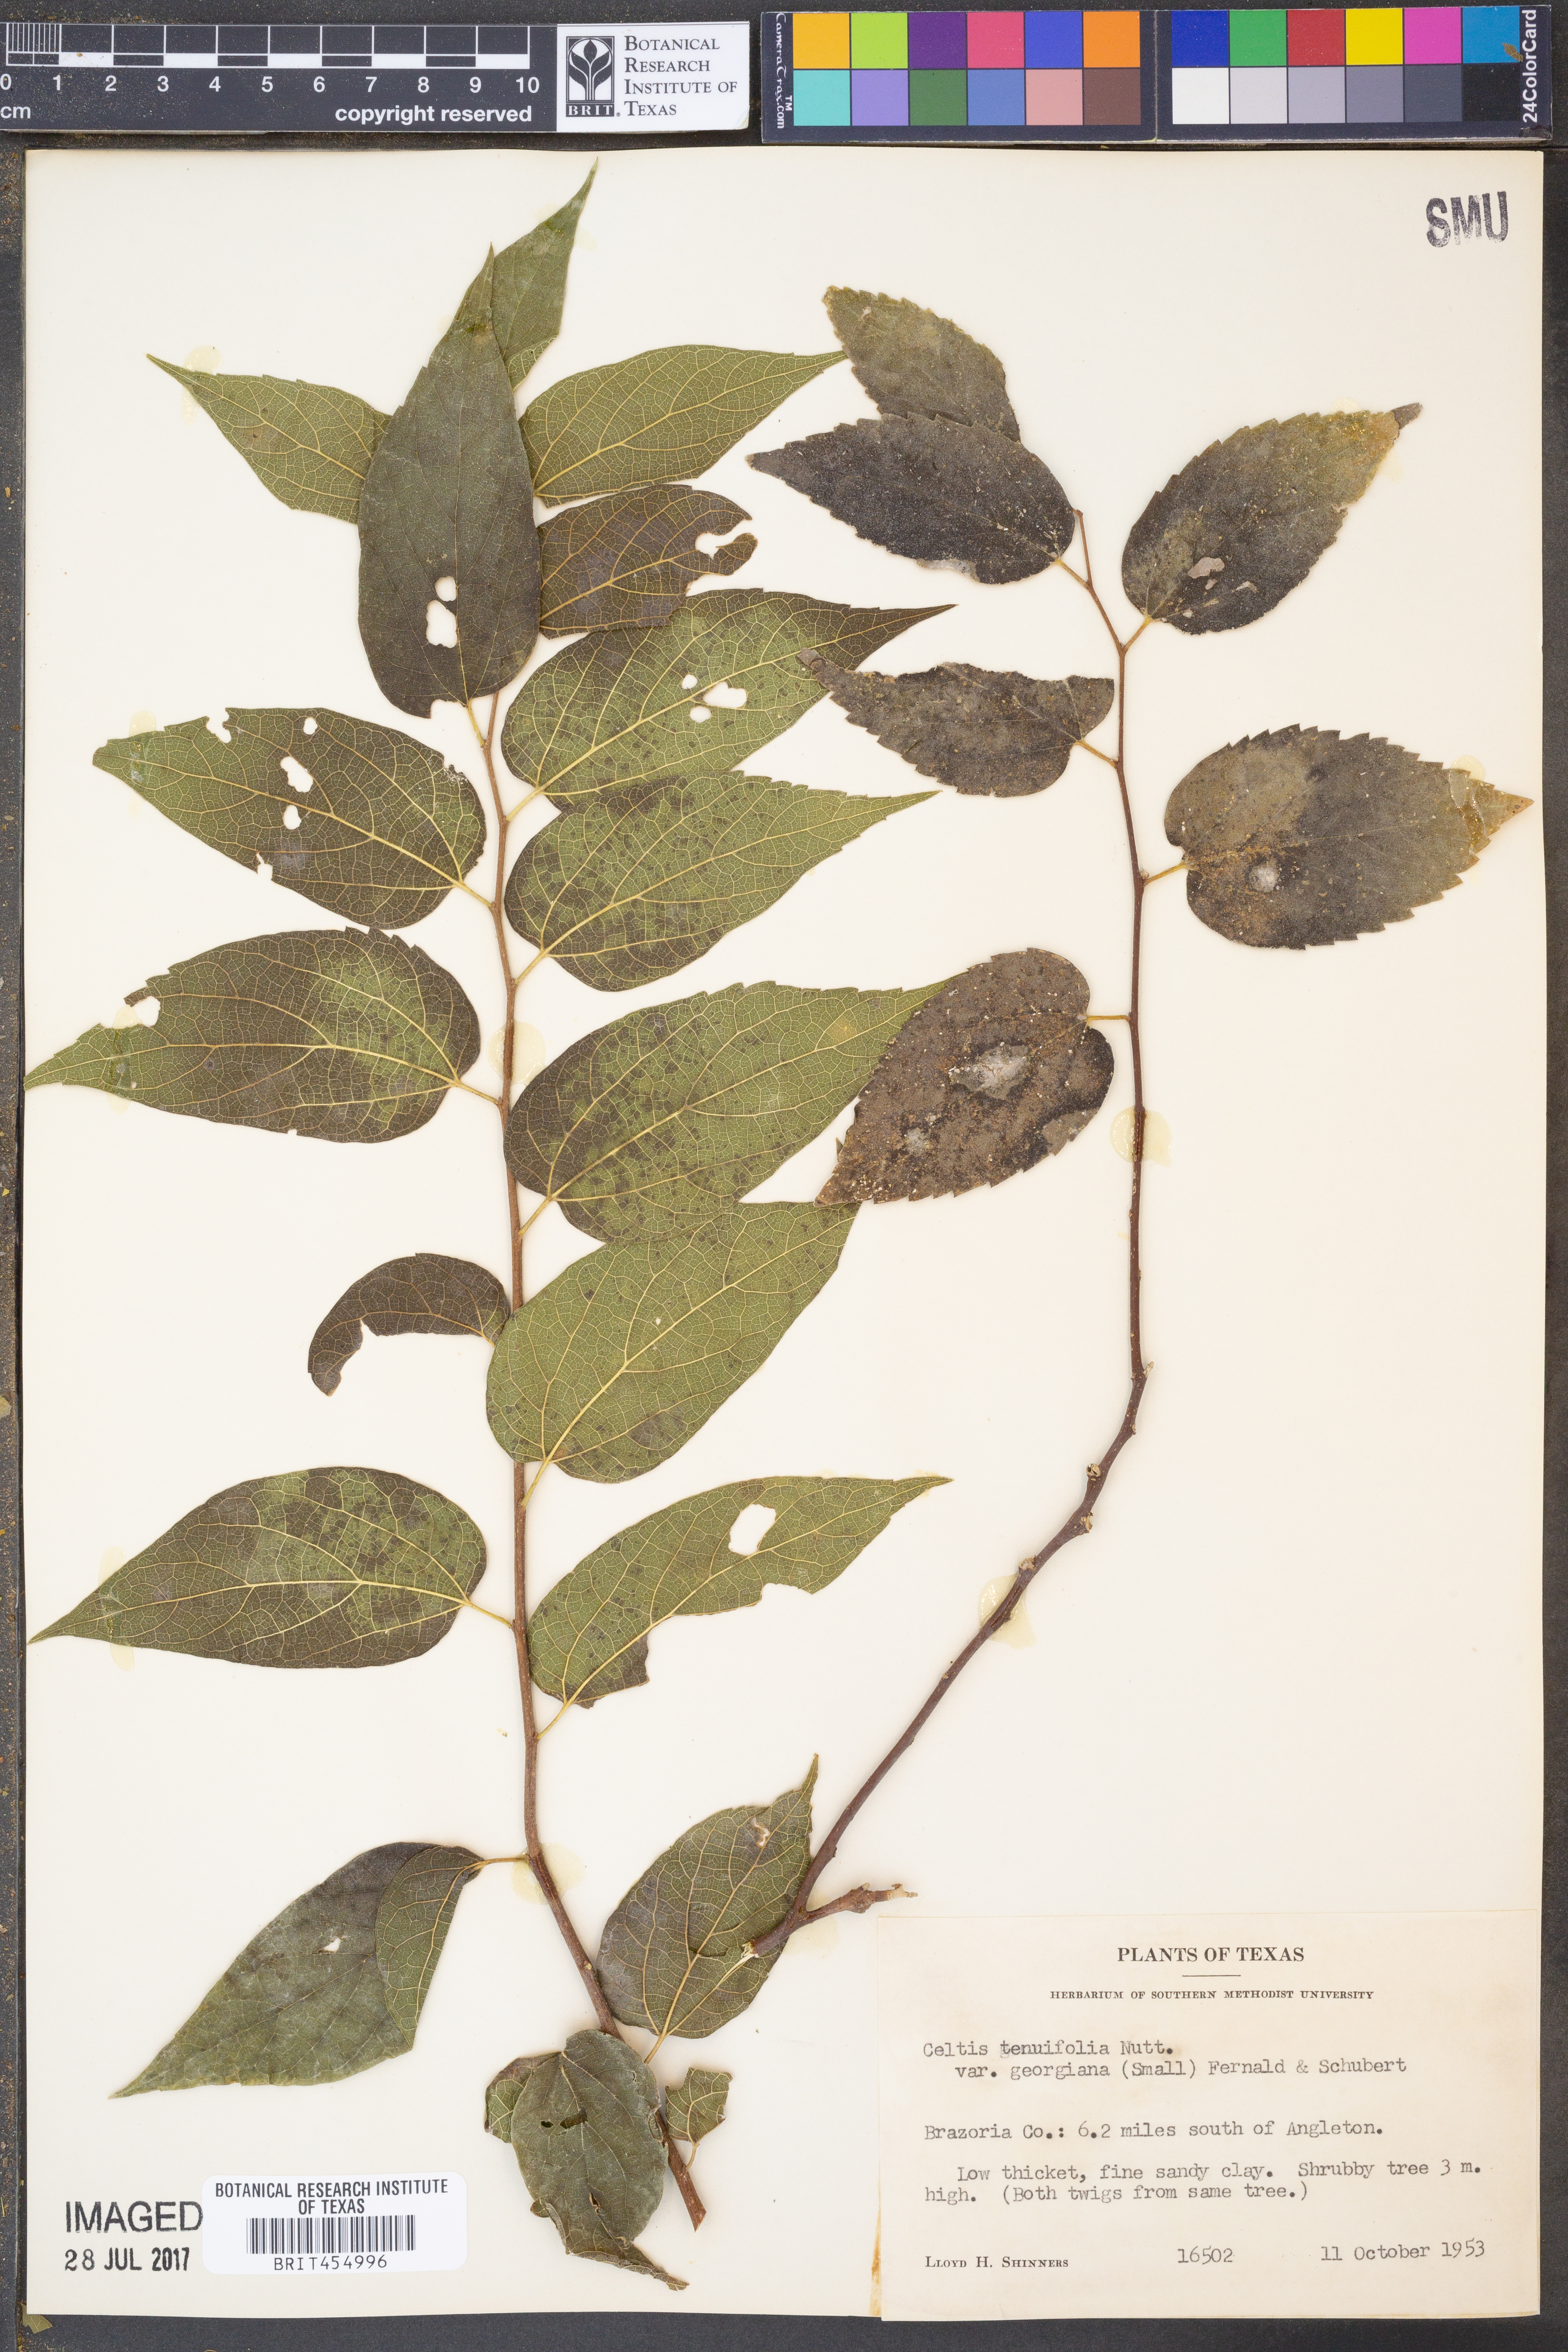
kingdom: Plantae
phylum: Tracheophyta
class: Magnoliopsida
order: Rosales
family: Cannabaceae
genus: Celtis
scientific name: Celtis tenuifolia
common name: Georgia hackberry
